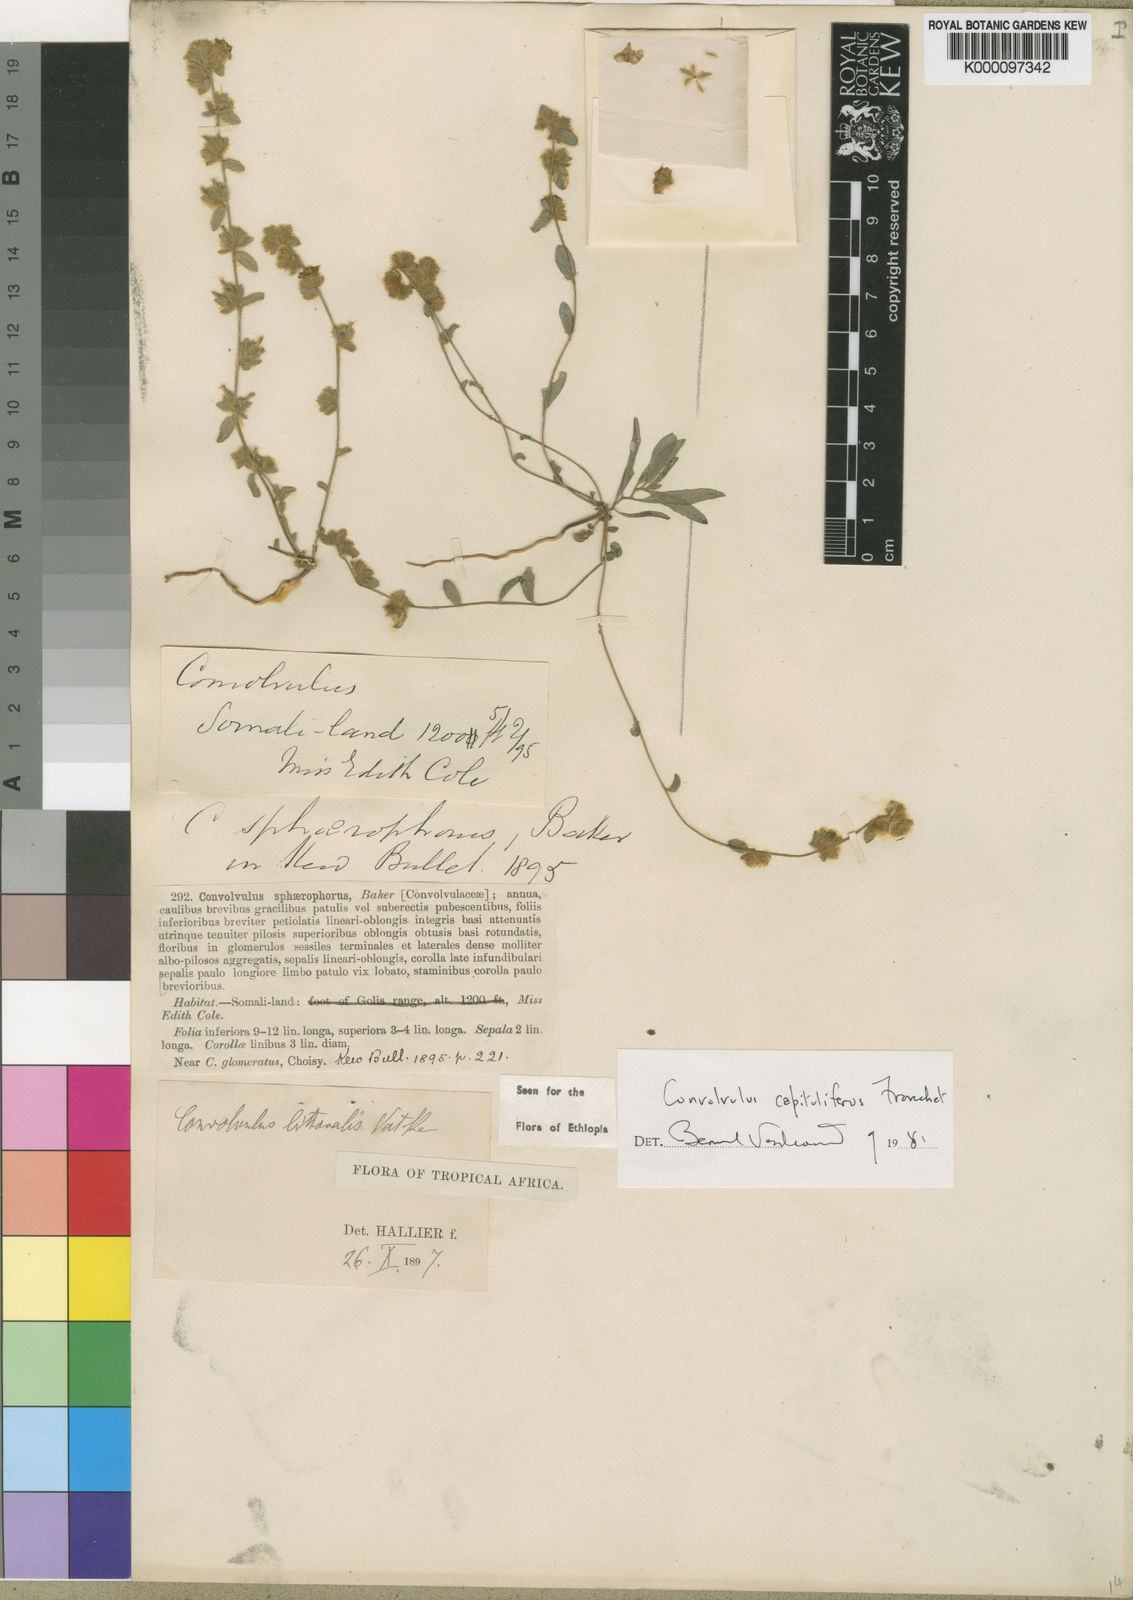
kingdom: Plantae
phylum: Tracheophyta
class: Magnoliopsida
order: Solanales
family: Convolvulaceae
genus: Convolvulus
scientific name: Convolvulus capitulifer
